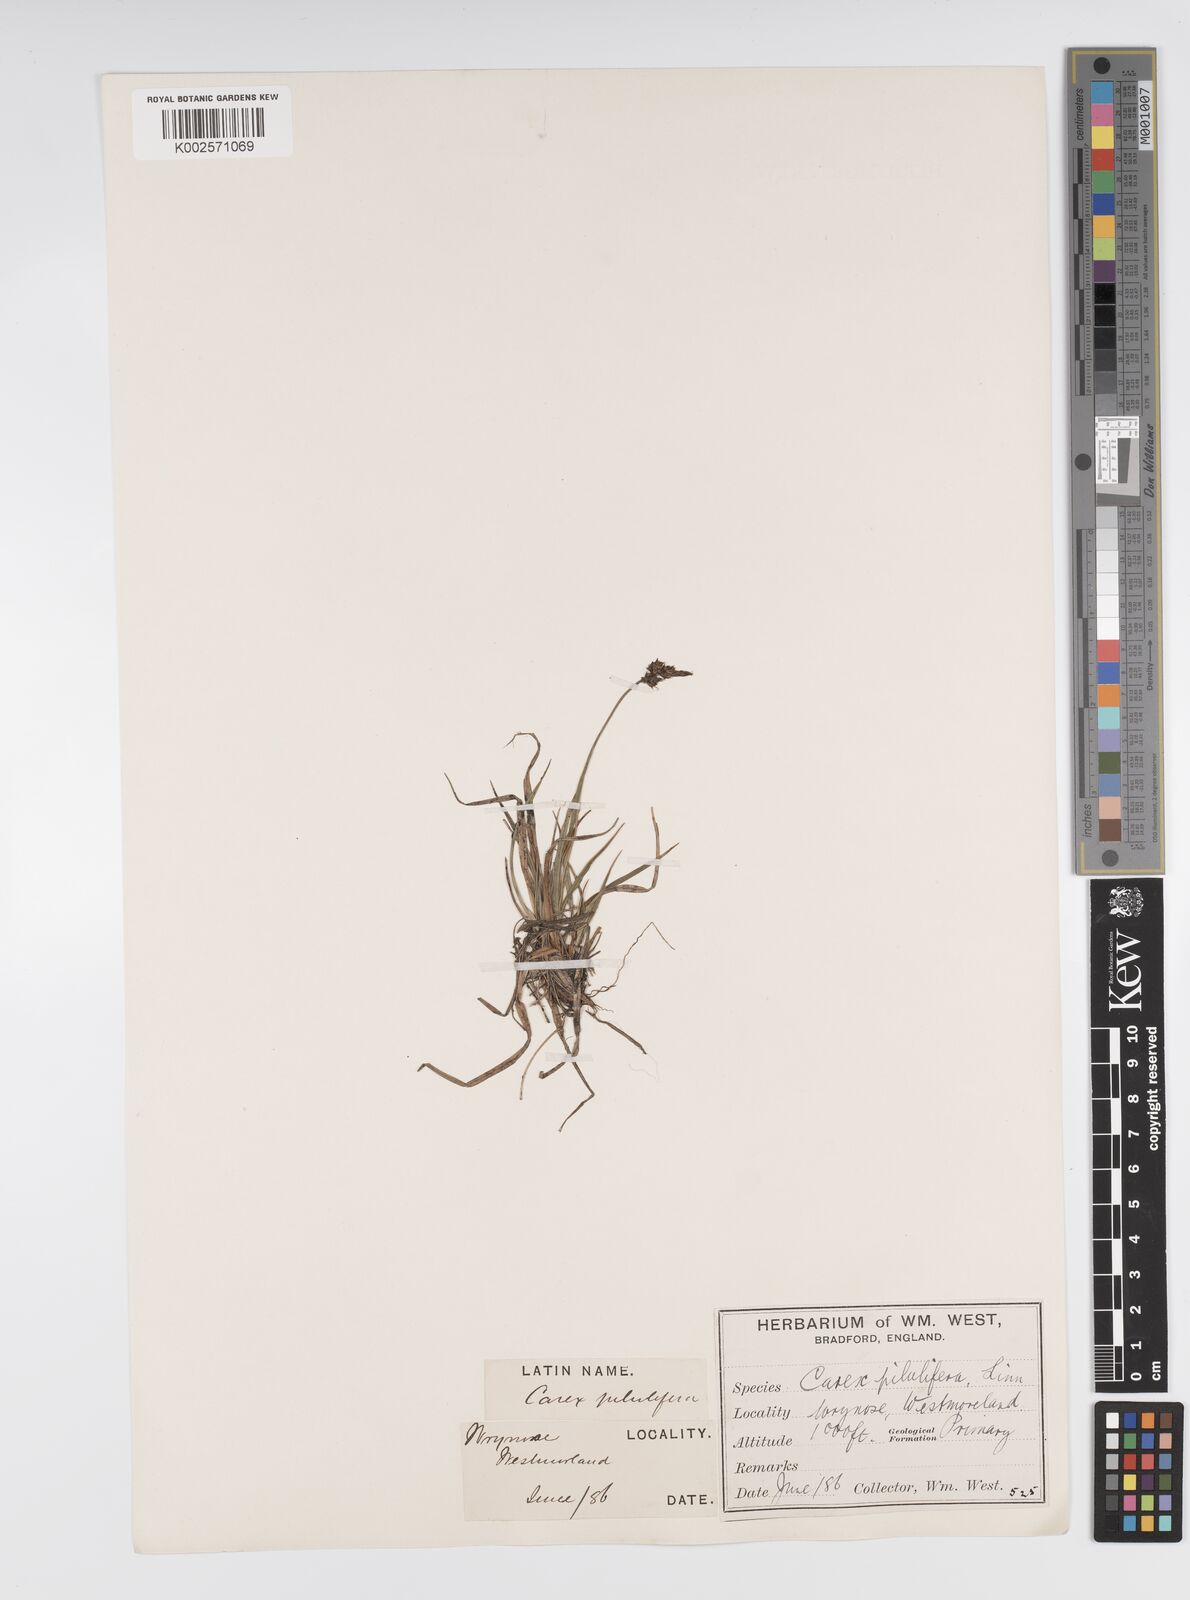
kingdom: Plantae
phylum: Tracheophyta
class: Liliopsida
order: Poales
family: Cyperaceae
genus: Carex
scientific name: Carex pilulifera
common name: Pill sedge
